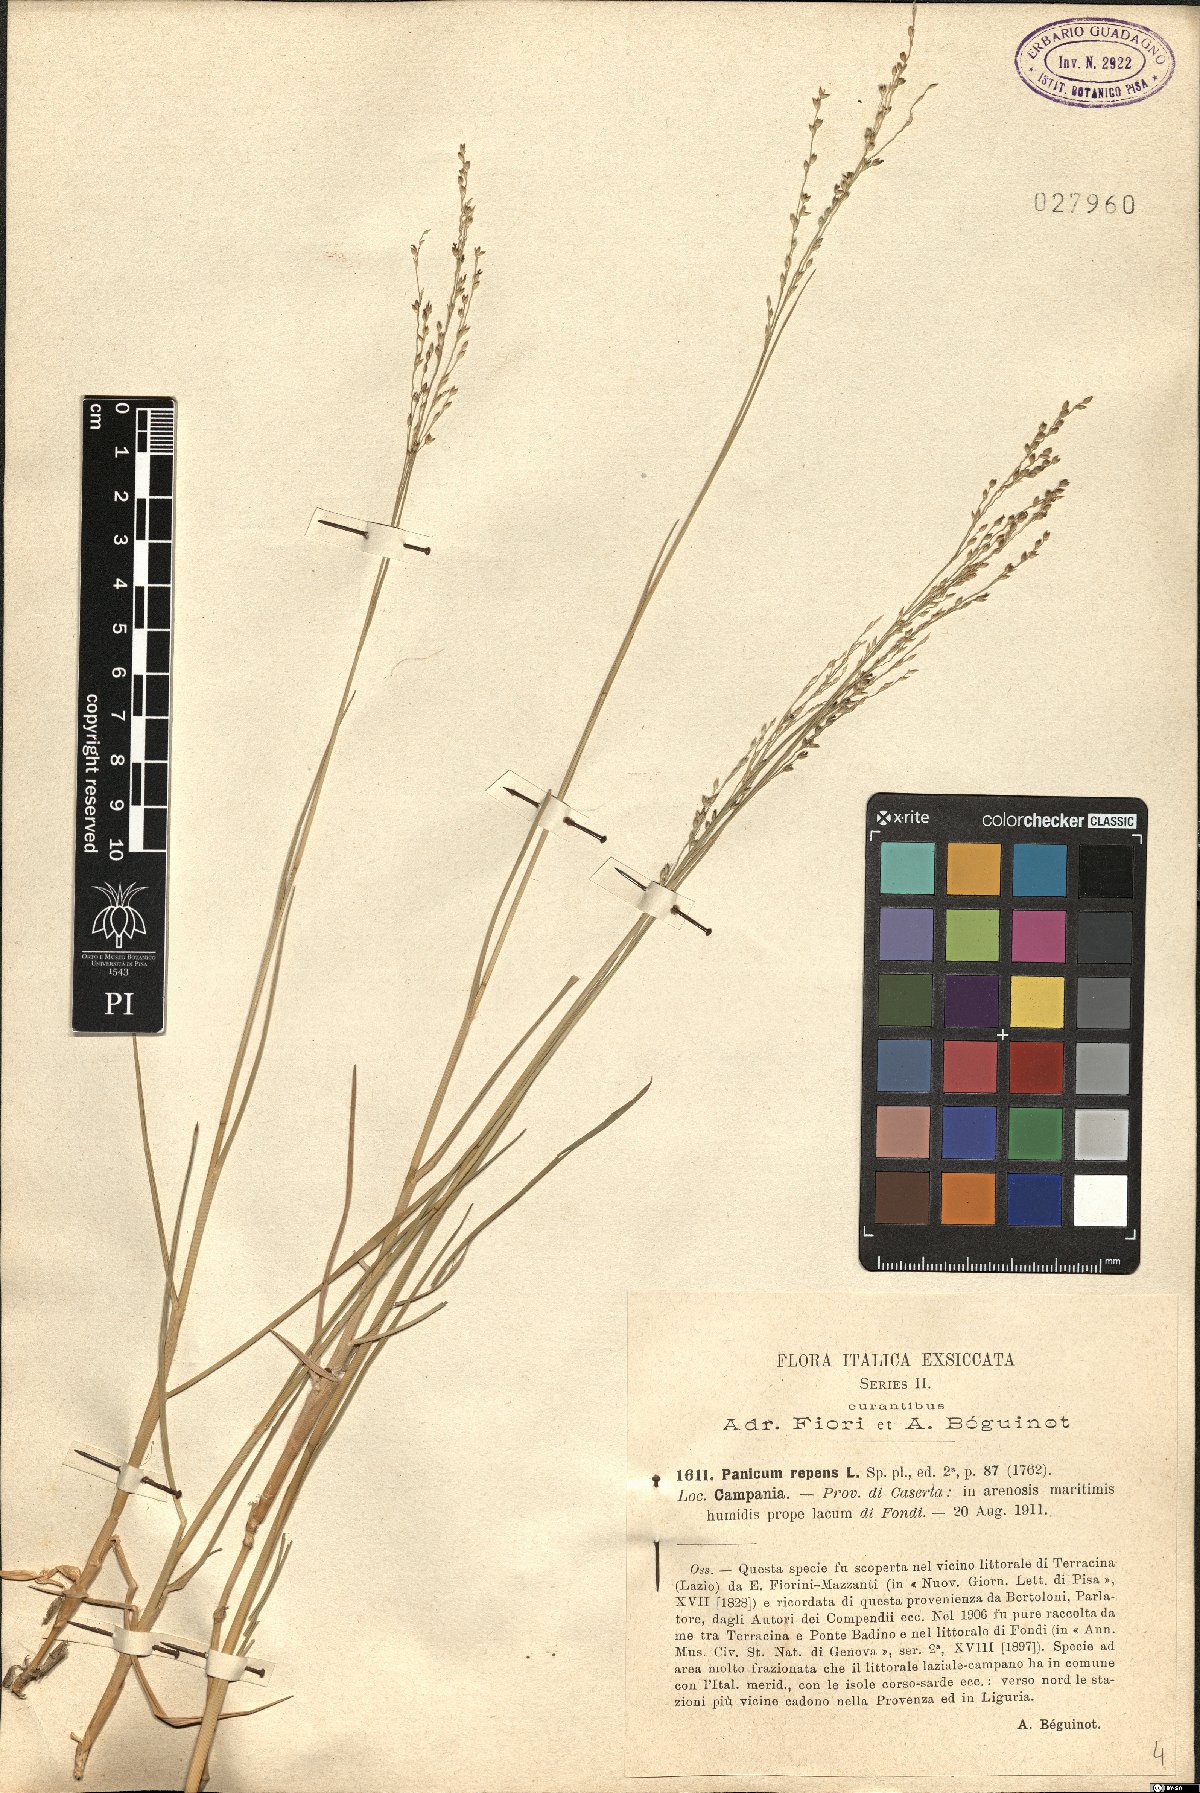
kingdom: Plantae
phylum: Tracheophyta
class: Liliopsida
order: Poales
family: Poaceae
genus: Panicum
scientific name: Panicum repens
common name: Torpedo grass
